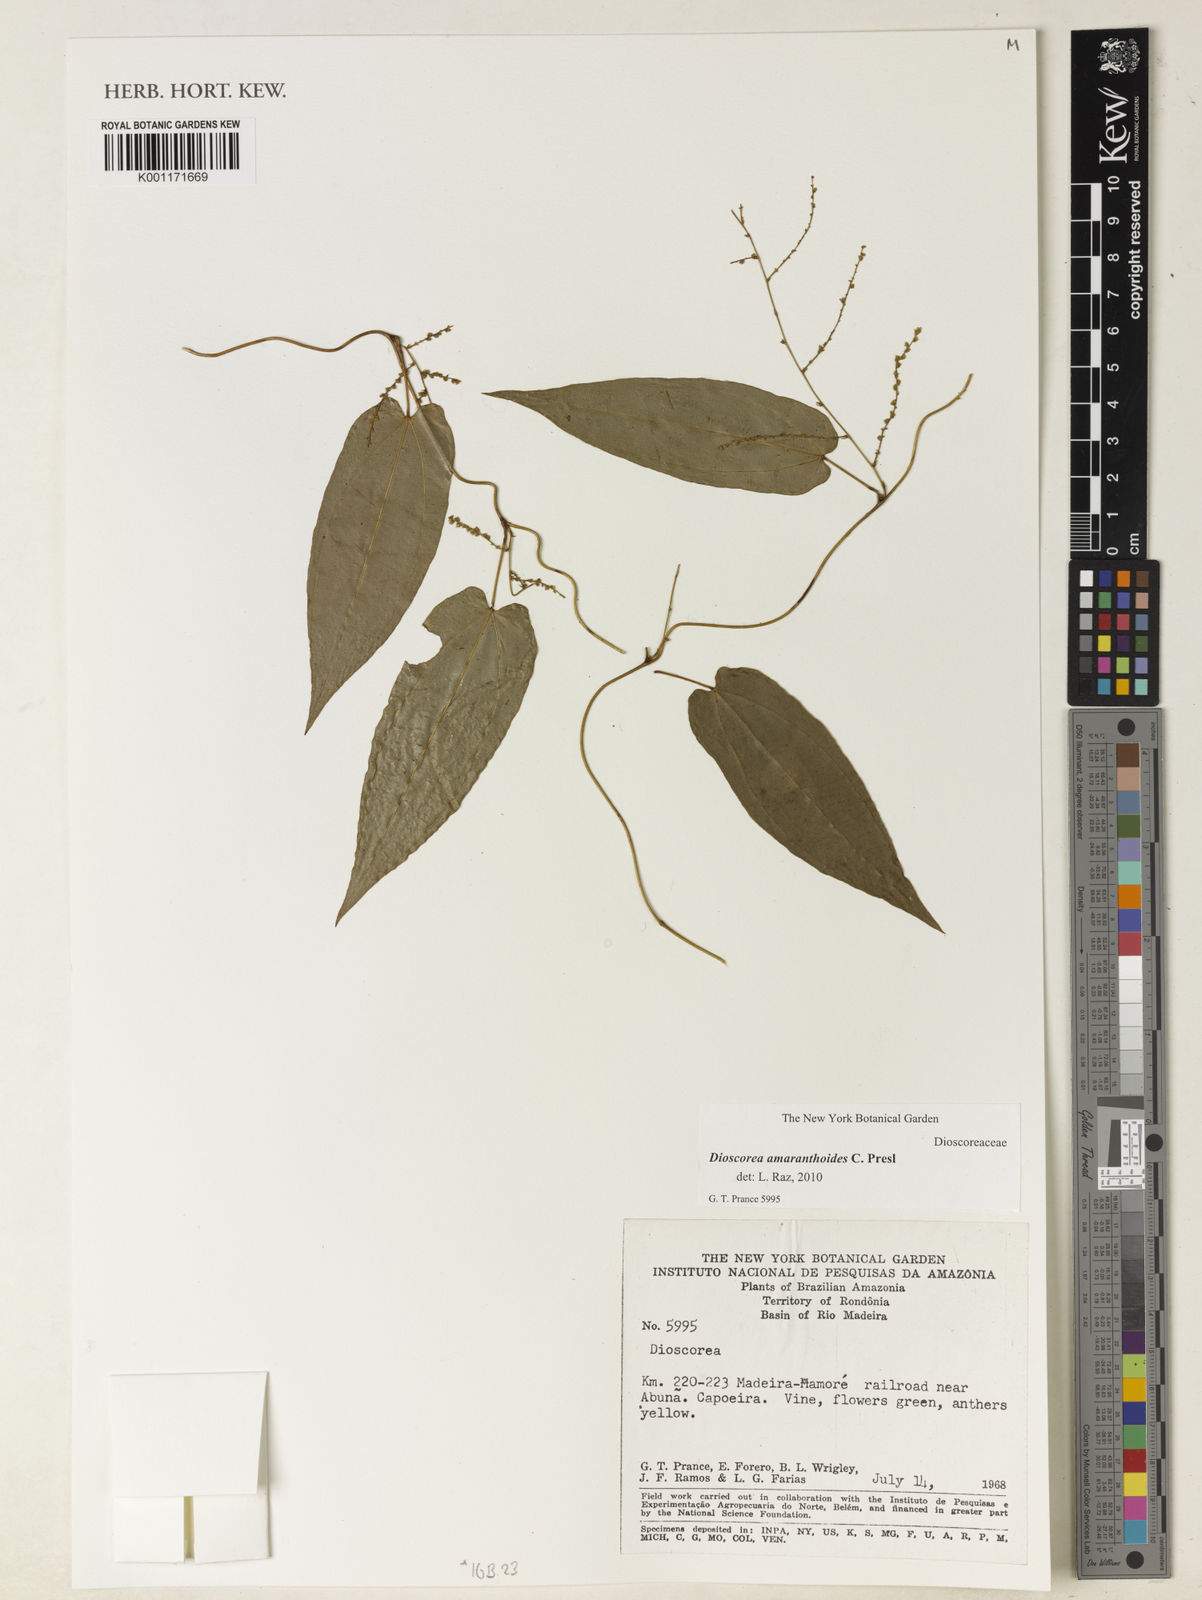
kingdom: Plantae
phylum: Tracheophyta
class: Liliopsida
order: Dioscoreales
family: Dioscoreaceae
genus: Dioscorea
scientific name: Dioscorea amaranthoides
